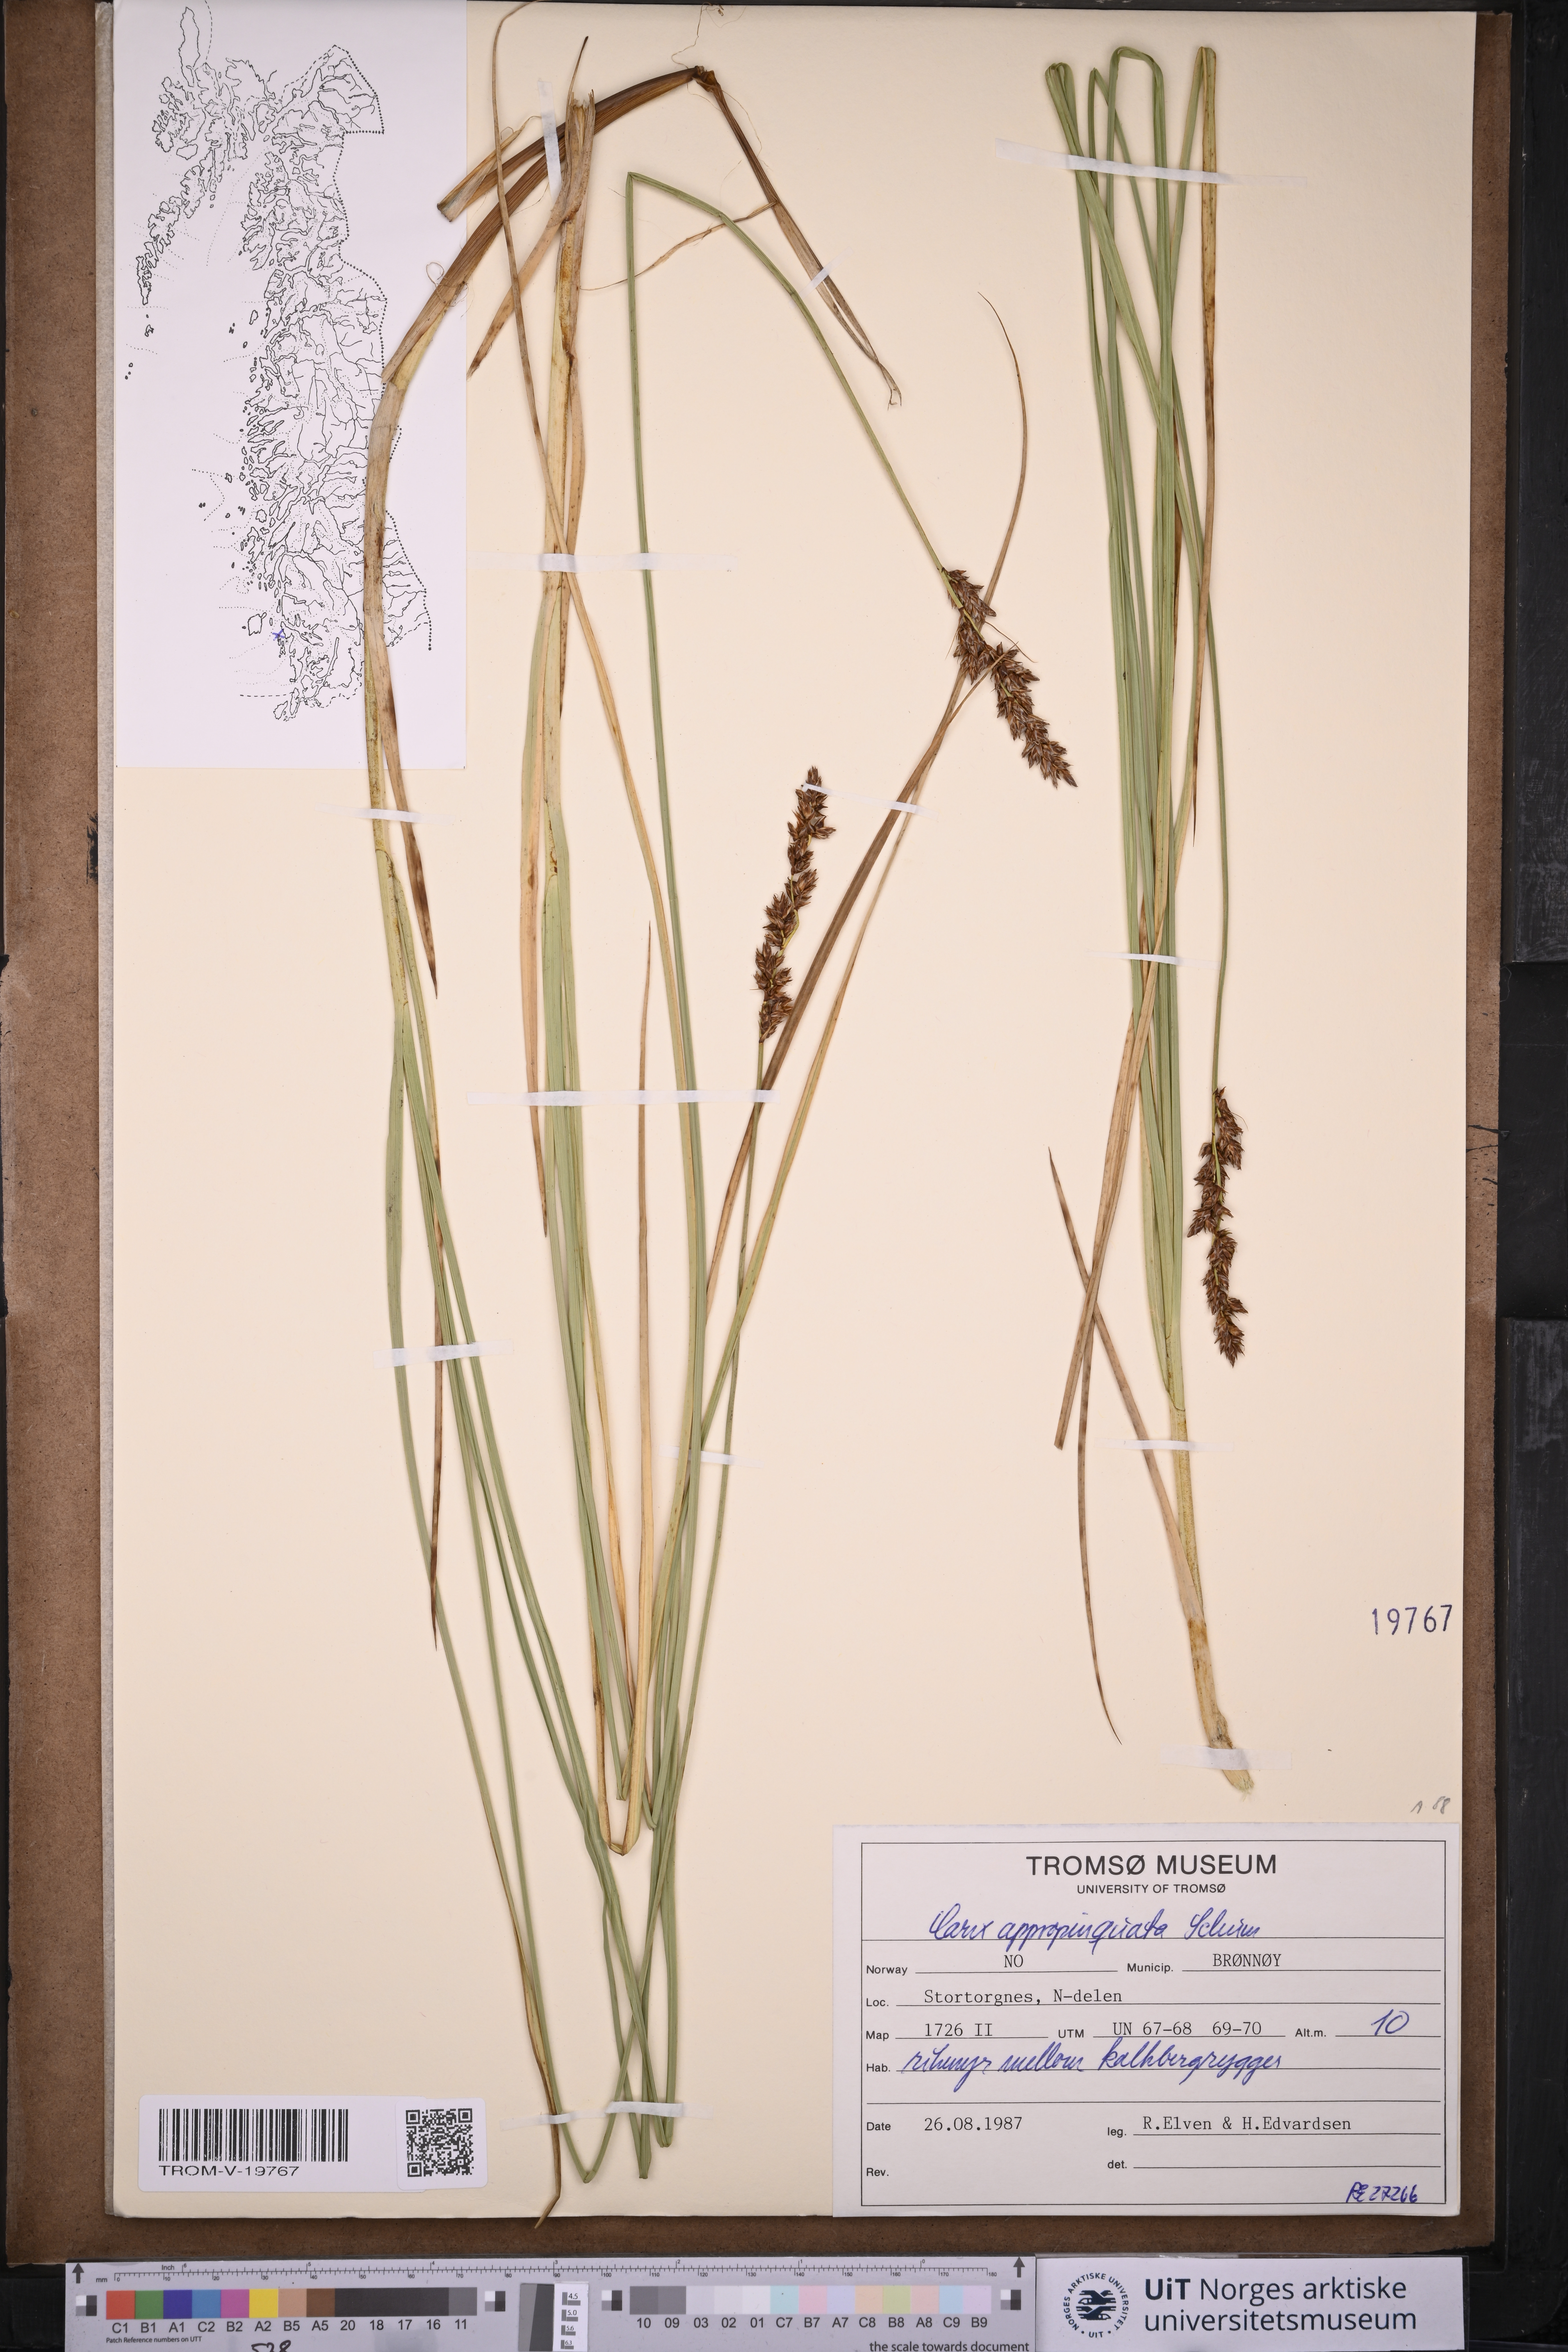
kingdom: Plantae
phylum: Tracheophyta
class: Liliopsida
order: Poales
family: Cyperaceae
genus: Carex
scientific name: Carex appropinquata
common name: Fibrous tussock-sedge
